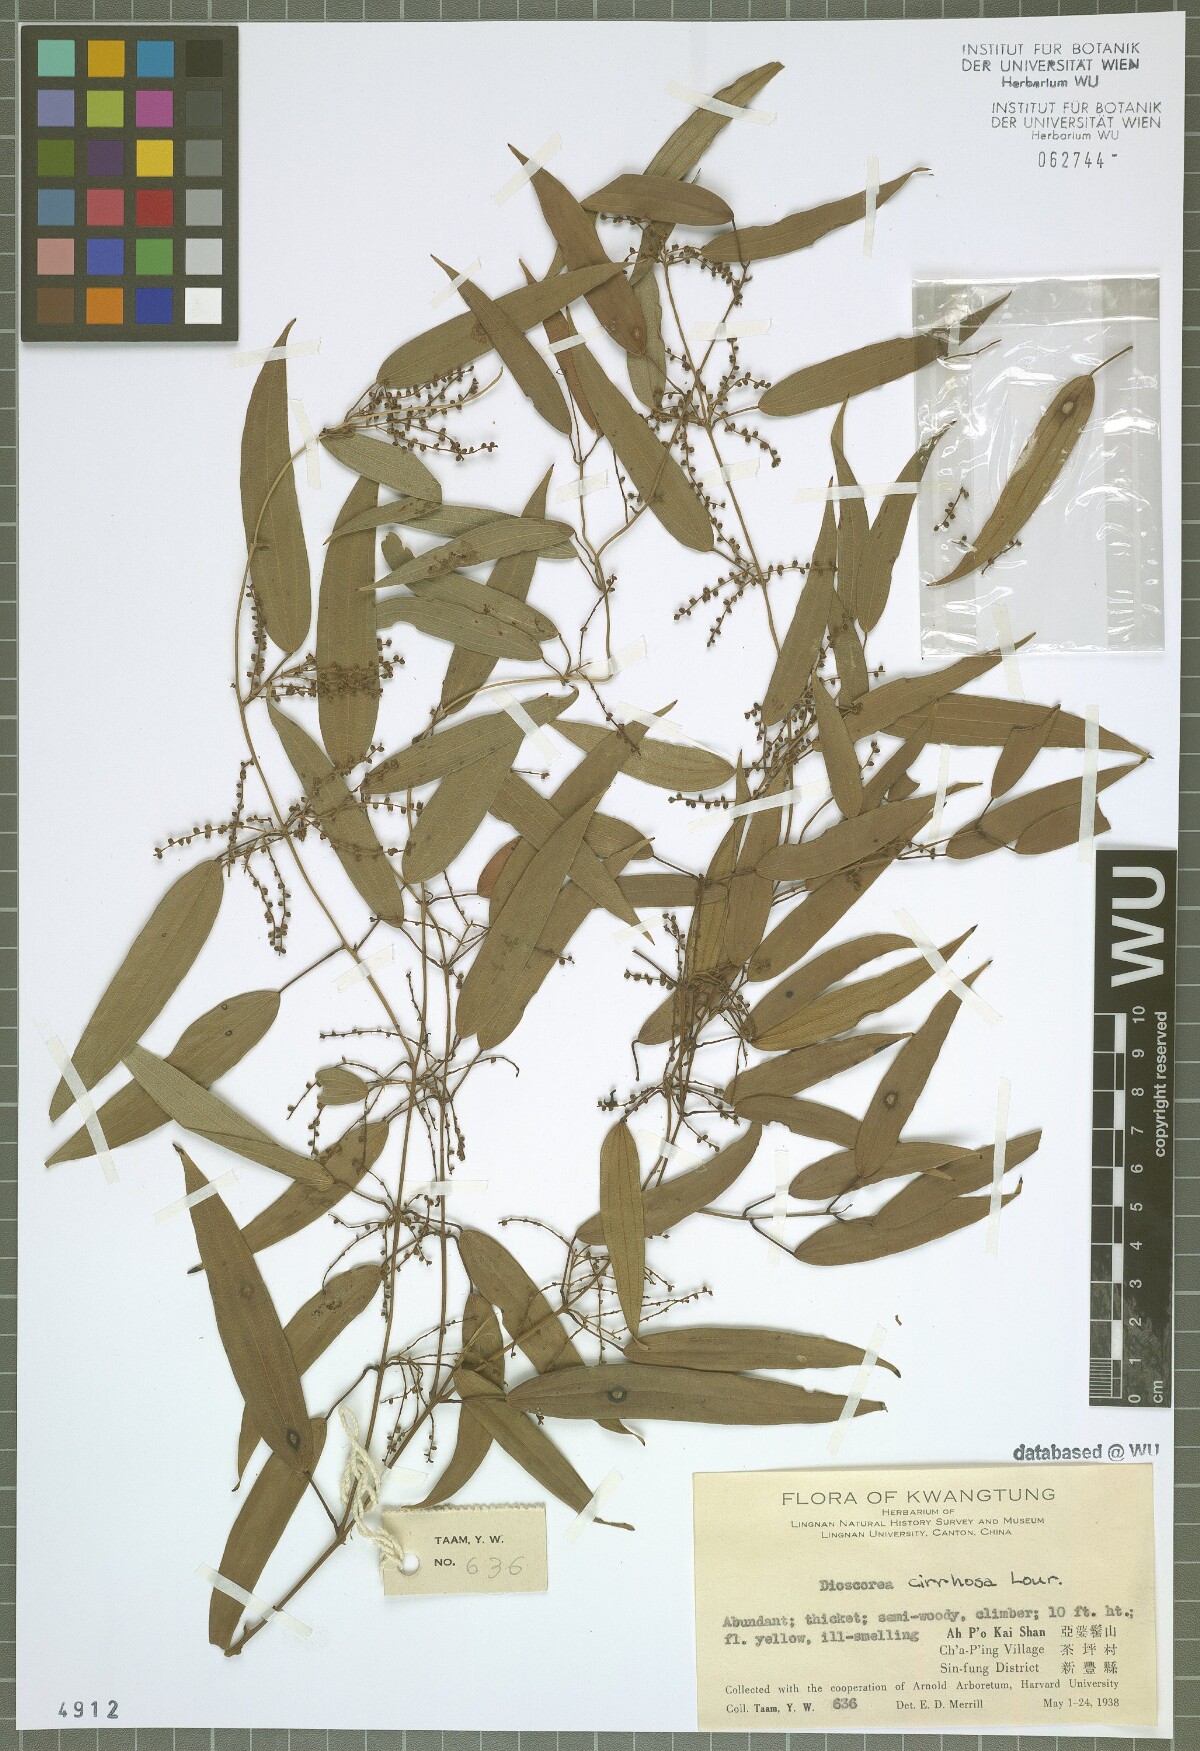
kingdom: Plantae
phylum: Tracheophyta
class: Liliopsida
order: Dioscoreales
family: Dioscoreaceae
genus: Dioscorea
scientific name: Dioscorea cirrhosa
